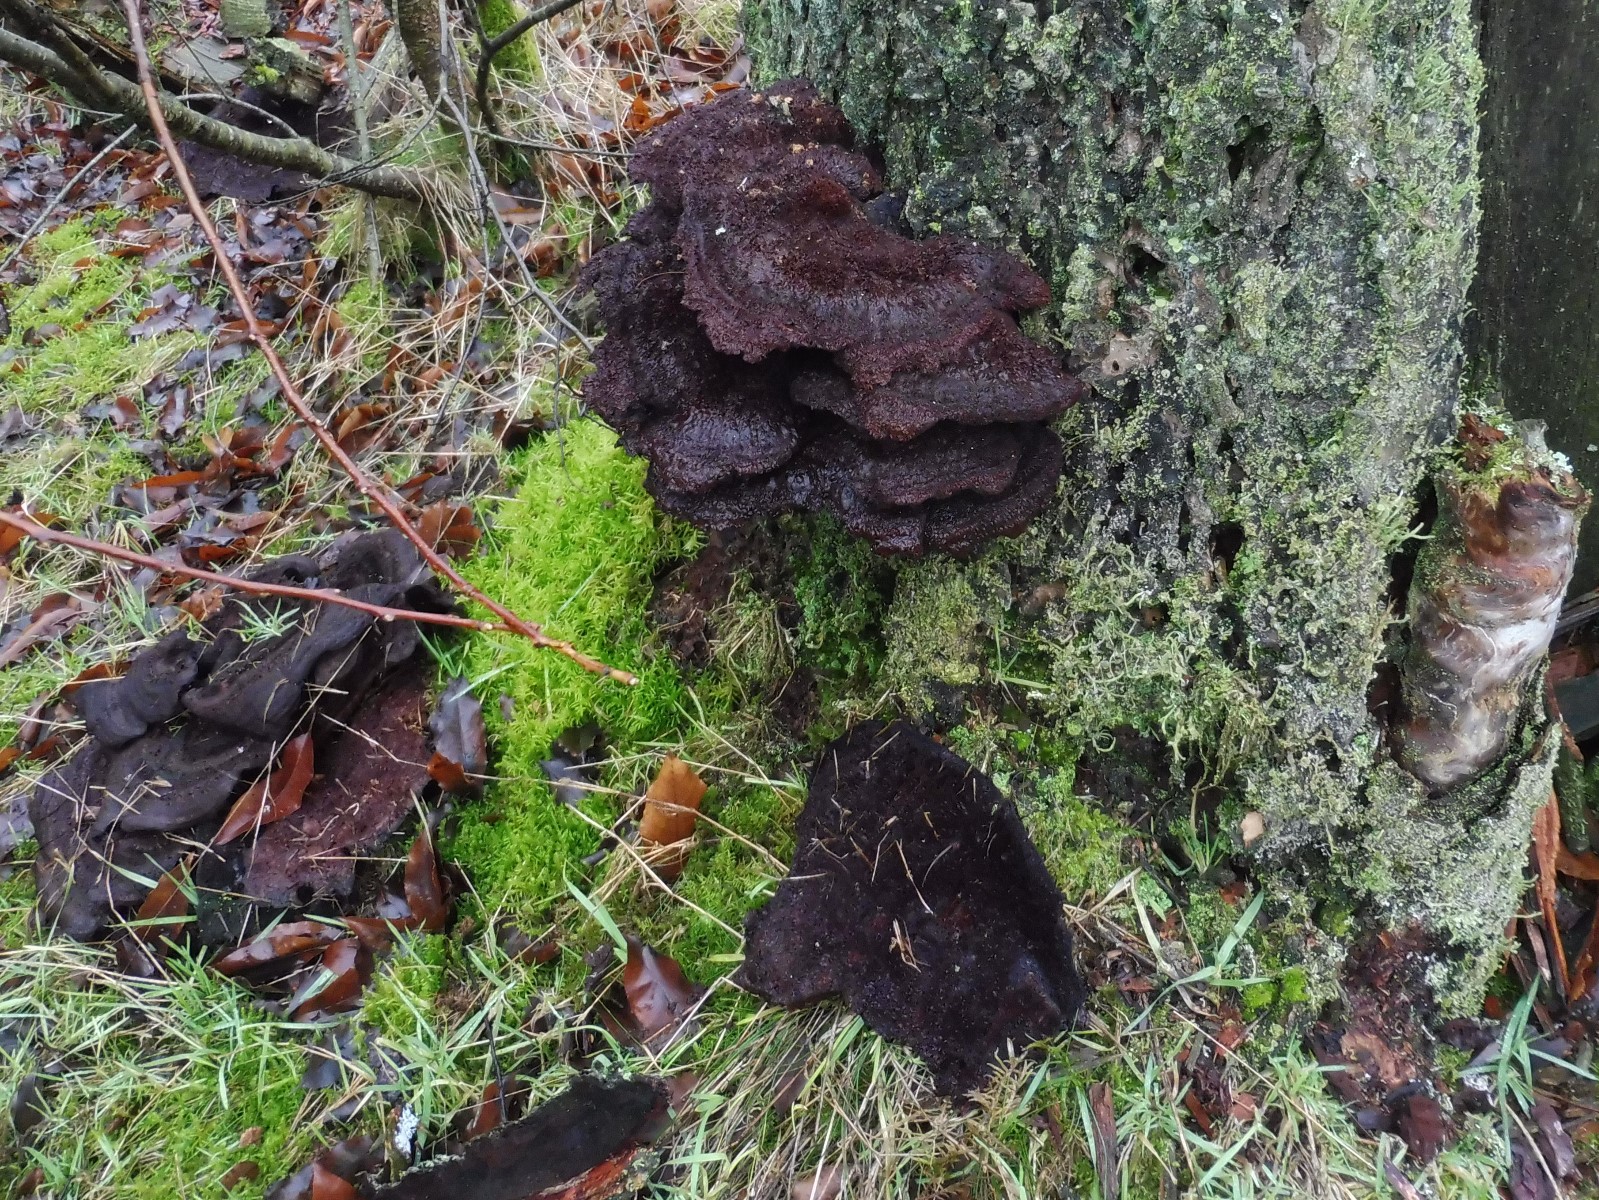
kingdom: Fungi
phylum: Basidiomycota
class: Agaricomycetes
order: Polyporales
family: Laetiporaceae
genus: Phaeolus
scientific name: Phaeolus schweinitzii
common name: brunporesvamp
